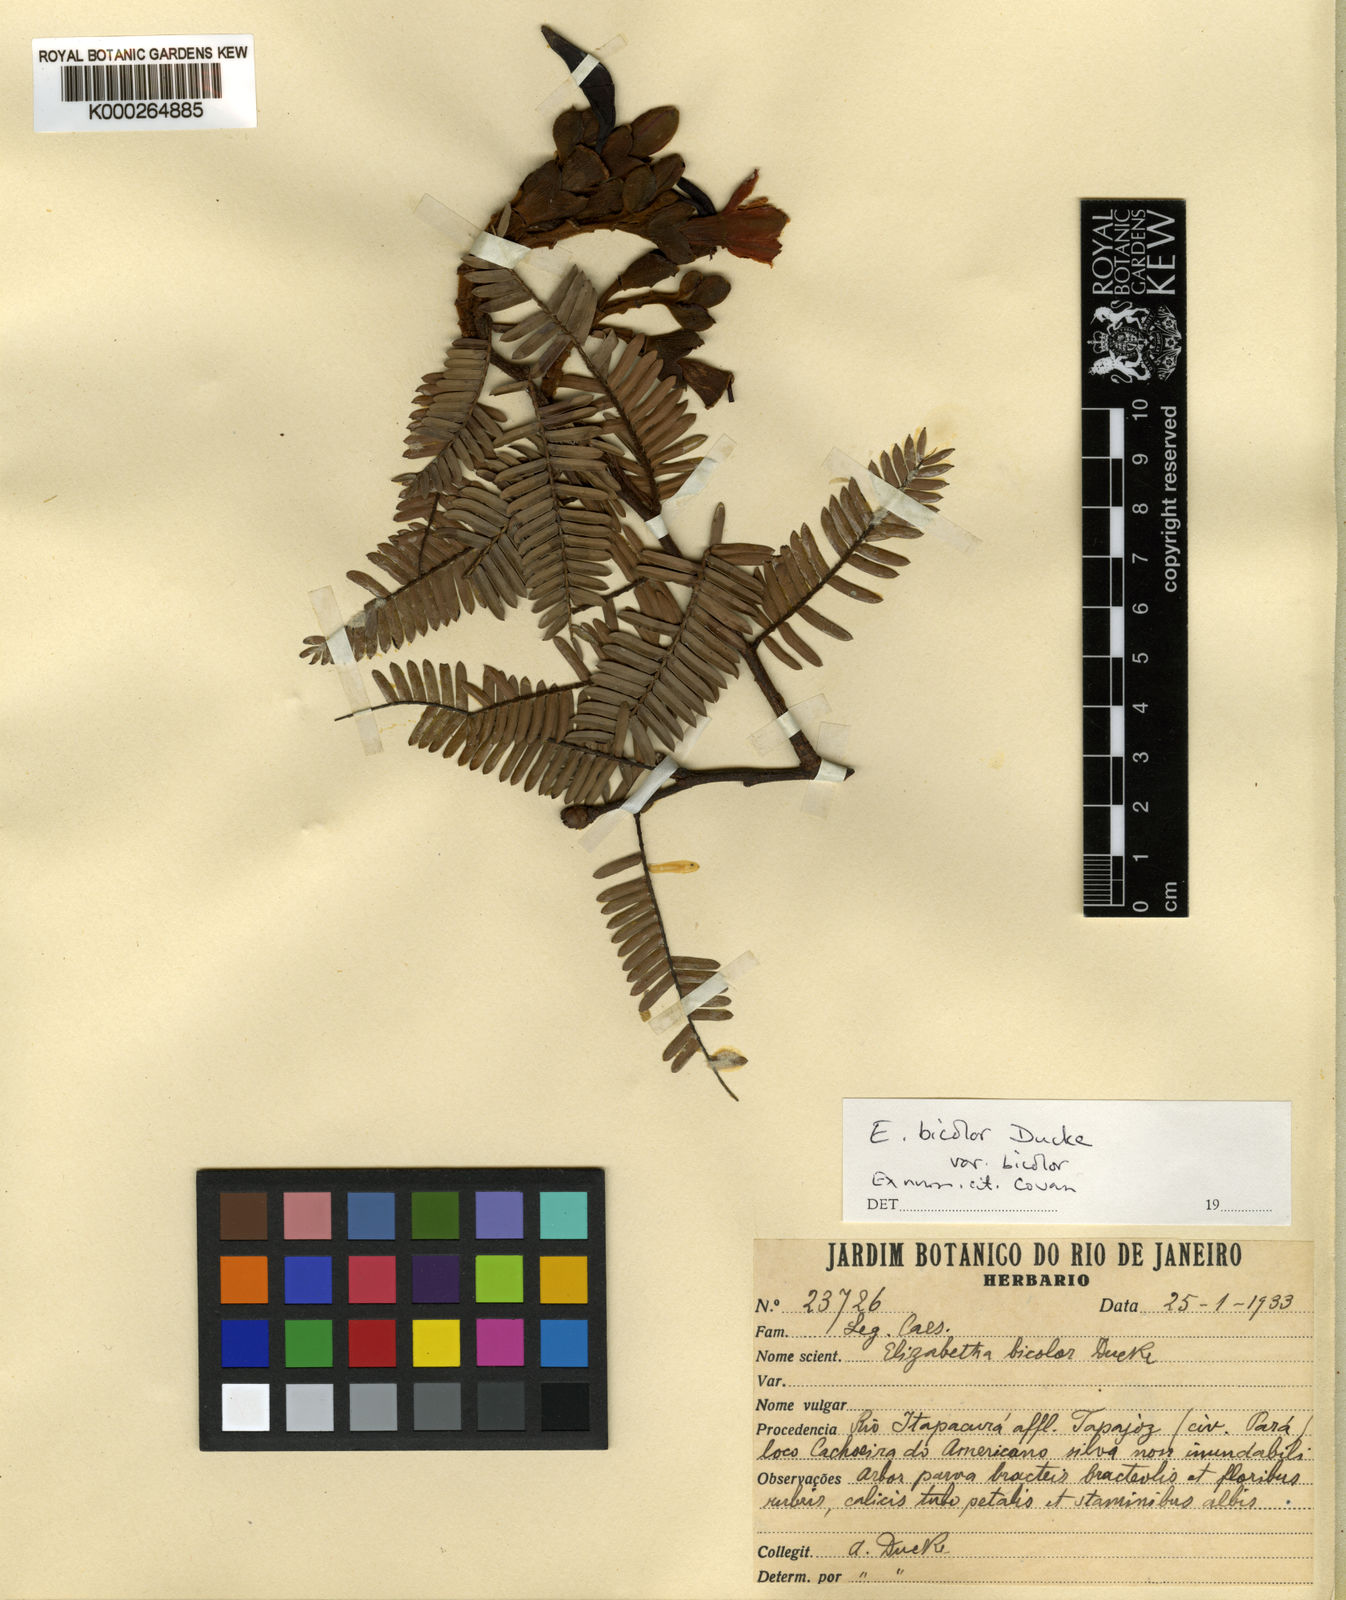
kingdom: Plantae
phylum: Tracheophyta
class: Magnoliopsida
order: Fabales
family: Fabaceae
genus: Paloue
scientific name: Paloue bicolor
